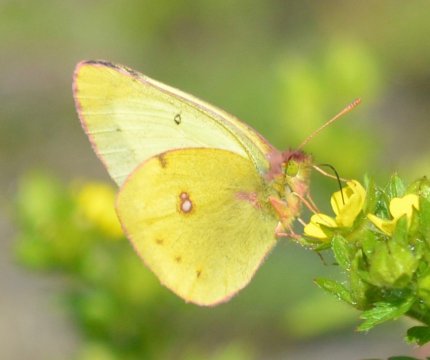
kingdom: Animalia
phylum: Arthropoda
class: Insecta
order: Lepidoptera
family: Pieridae
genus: Colias
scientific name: Colias philodice
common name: Clouded Sulphur
